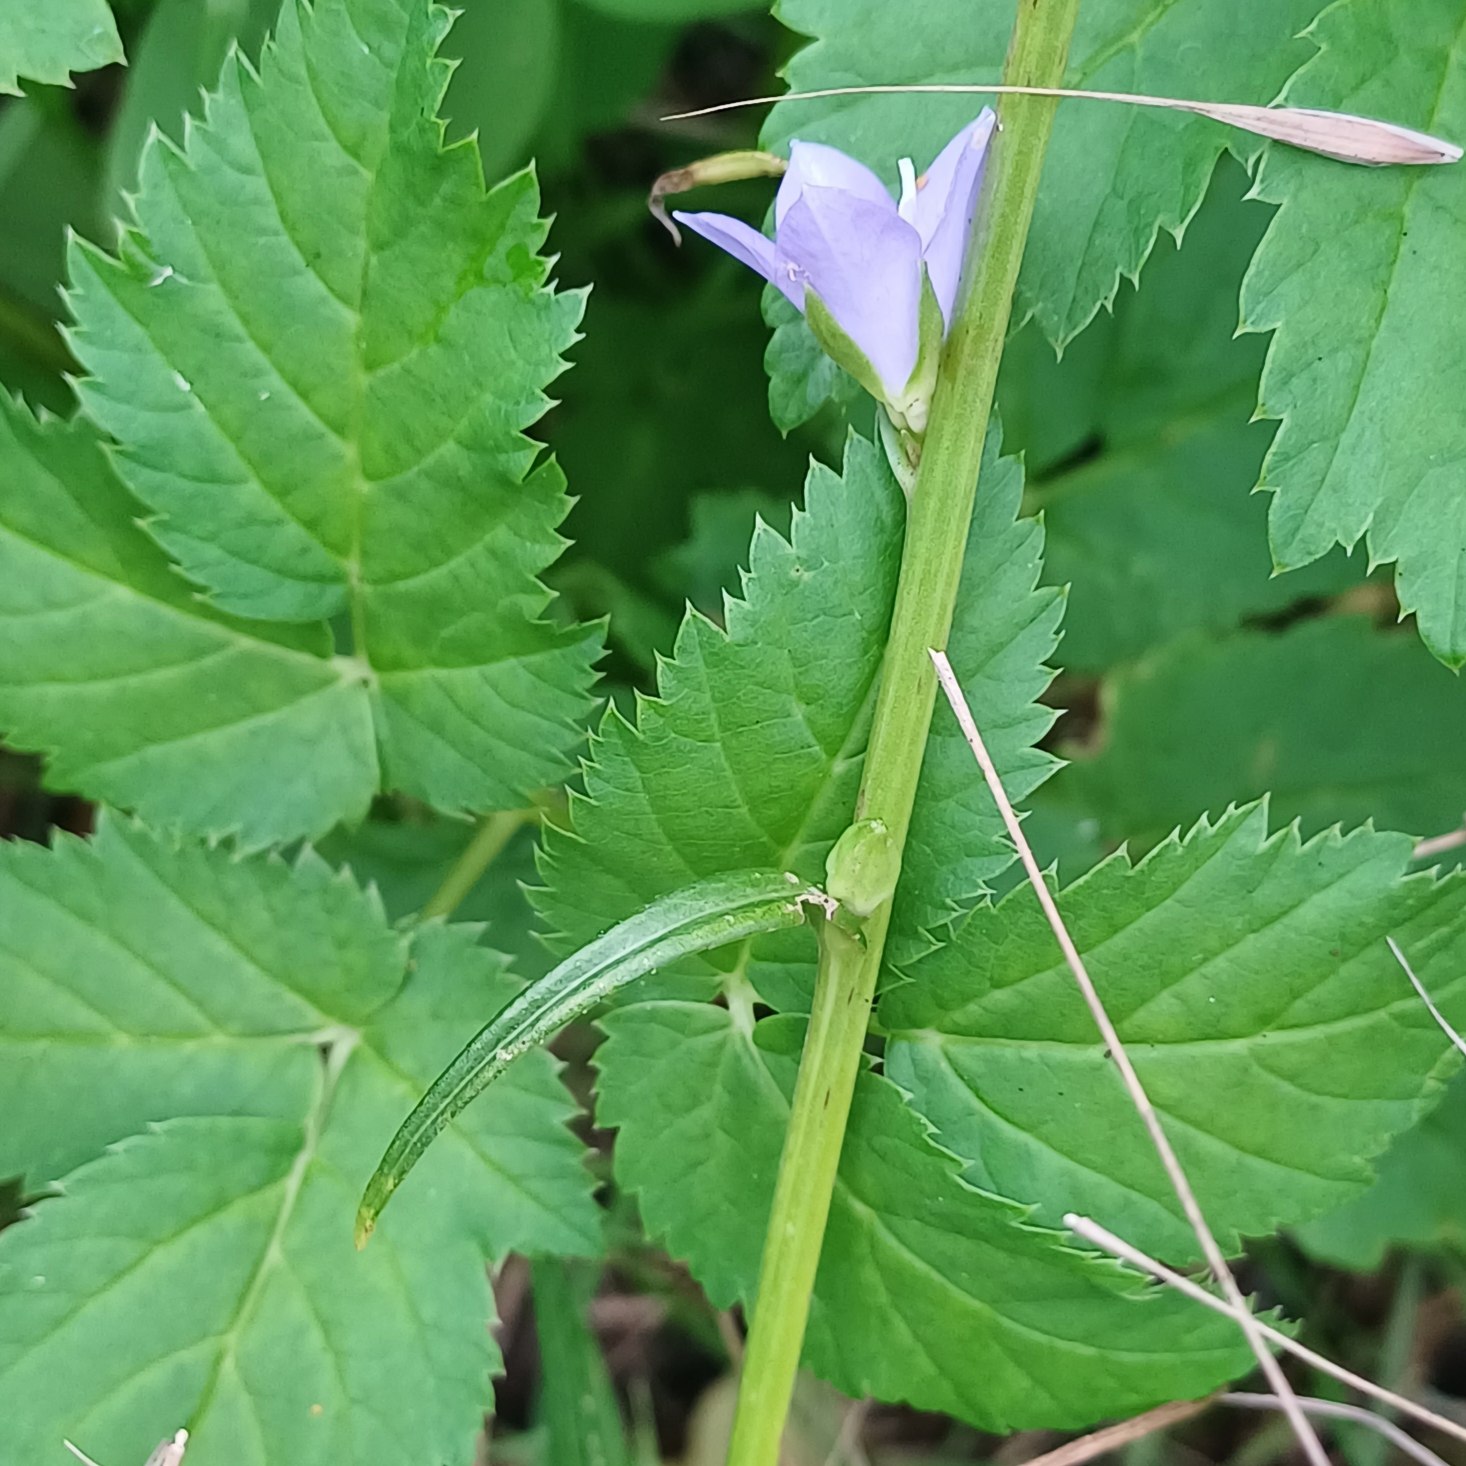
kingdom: Plantae
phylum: Tracheophyta
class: Magnoliopsida
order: Asterales
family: Campanulaceae
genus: Campanula
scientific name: Campanula persicifolia
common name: Smalbladet klokke
